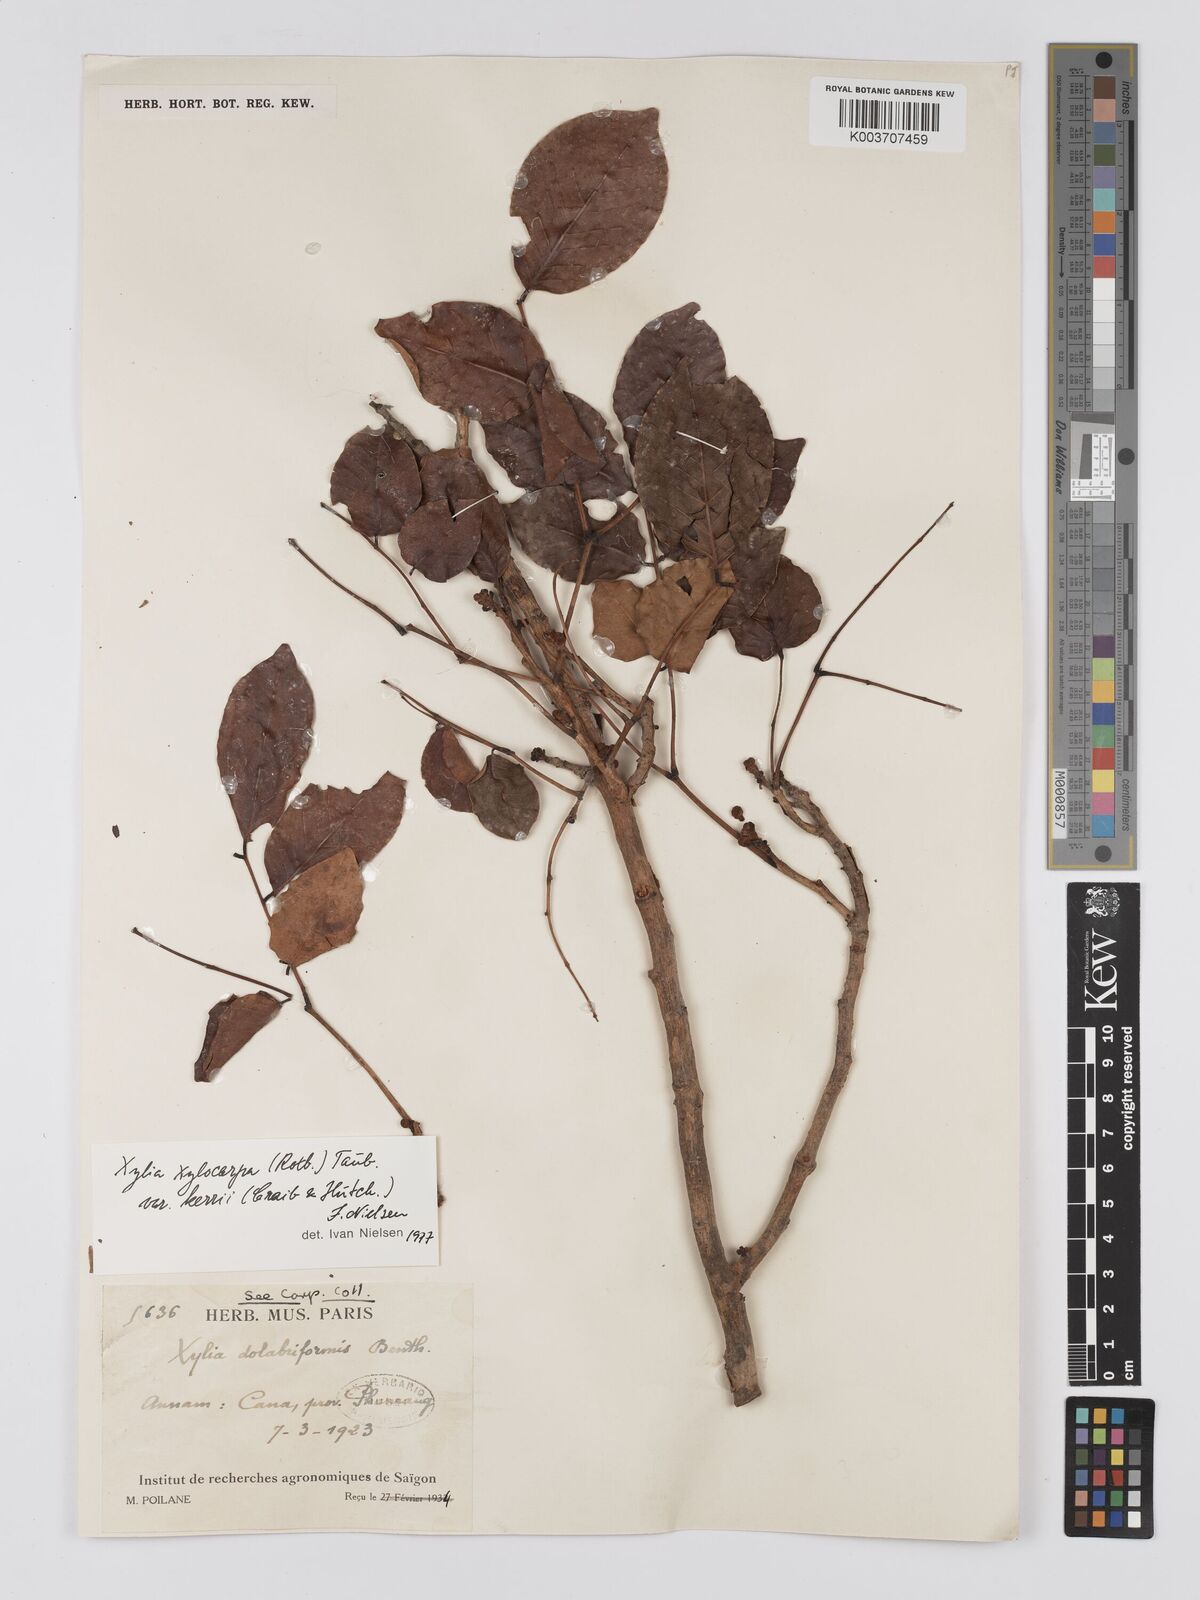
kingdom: Plantae
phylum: Tracheophyta
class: Magnoliopsida
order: Fabales
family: Fabaceae
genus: Xylia
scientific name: Xylia xylocarpa
